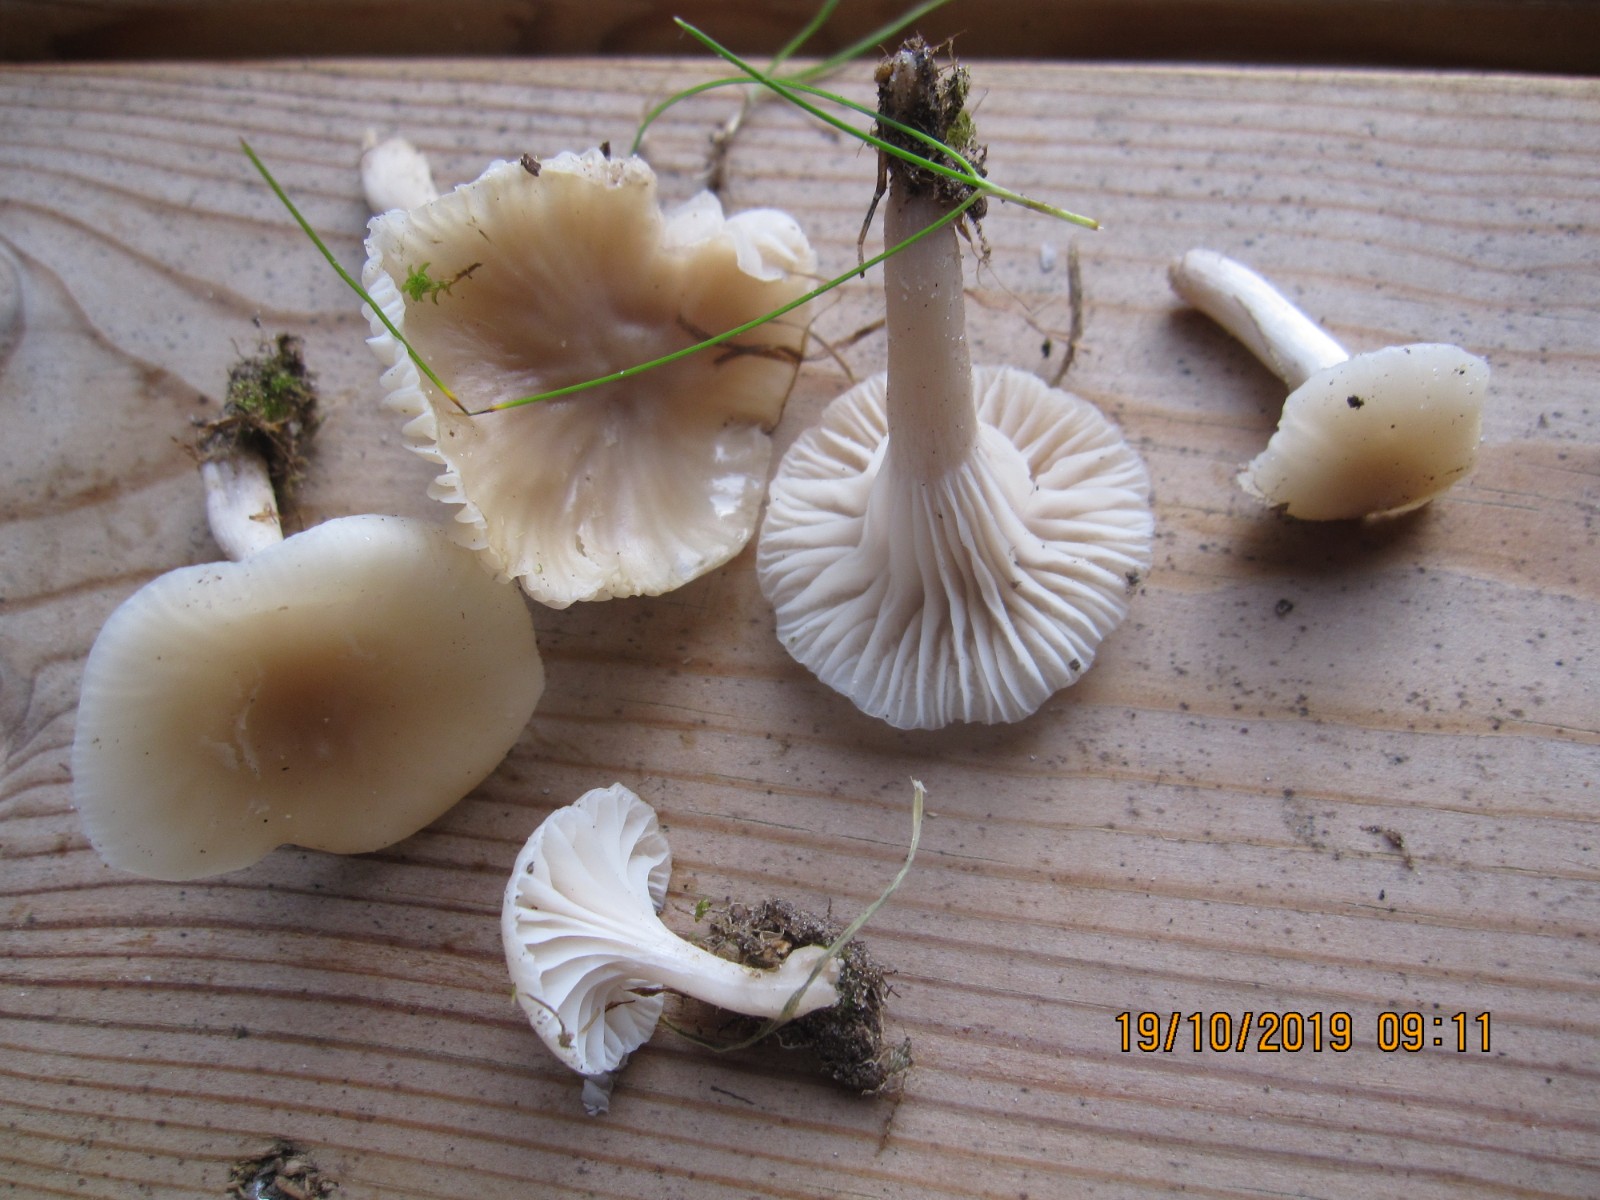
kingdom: Fungi
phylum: Basidiomycota
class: Agaricomycetes
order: Agaricales
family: Hygrophoraceae
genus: Cuphophyllus
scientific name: Cuphophyllus virgineus
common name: isabella-vokshat
